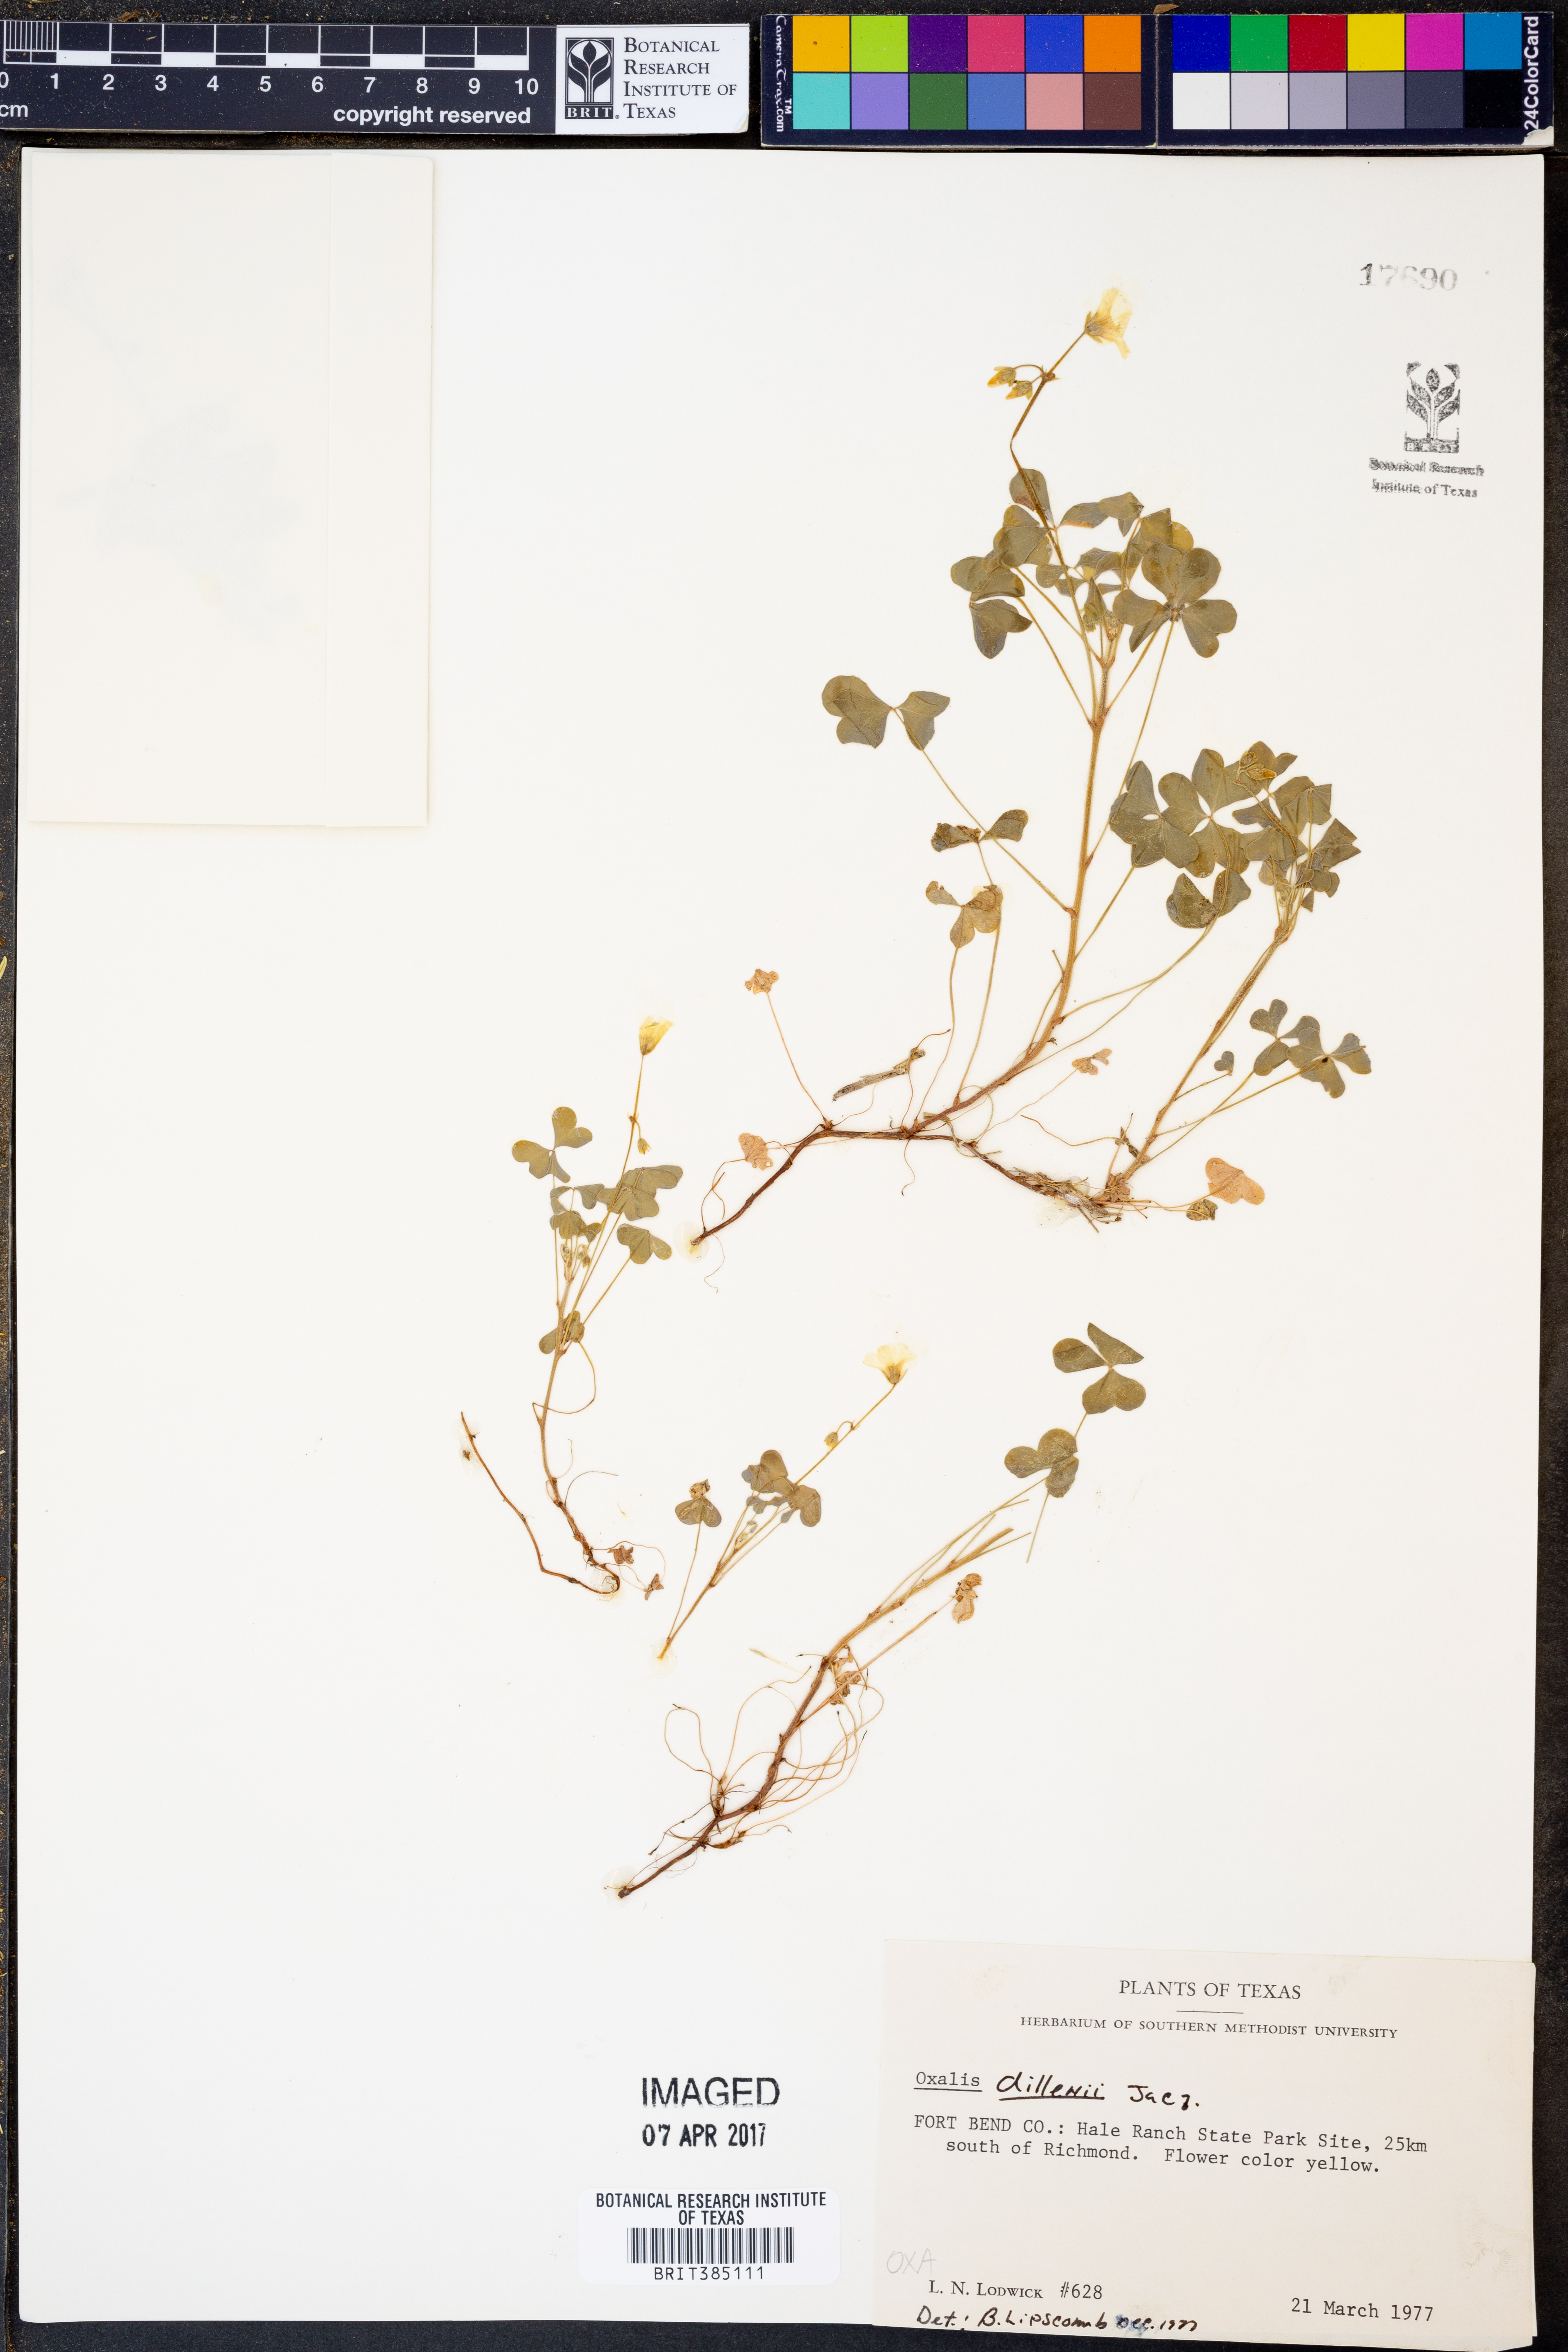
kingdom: Plantae
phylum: Tracheophyta
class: Magnoliopsida
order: Oxalidales
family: Oxalidaceae
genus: Oxalis
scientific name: Oxalis dillenii
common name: Sussex yellow-sorrel
